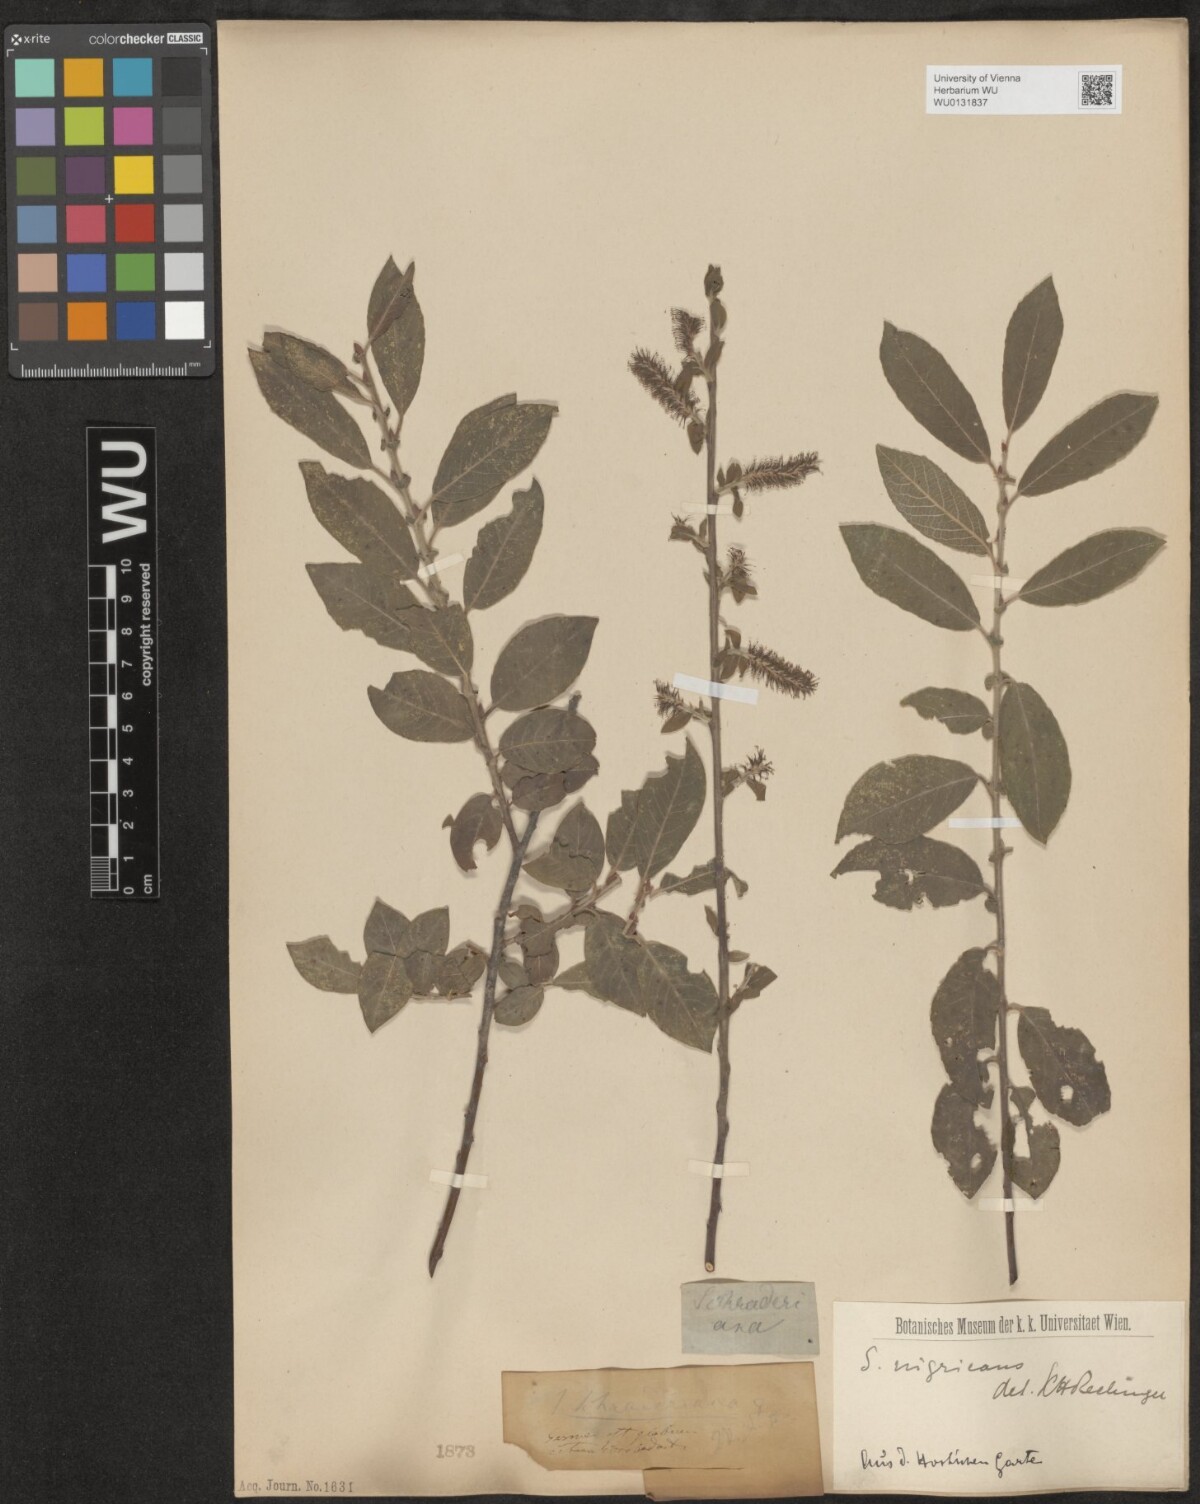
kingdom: Plantae
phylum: Tracheophyta
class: Magnoliopsida
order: Malpighiales
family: Salicaceae
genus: Salix
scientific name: Salix myrsinifolia
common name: Dark-leaved willow
